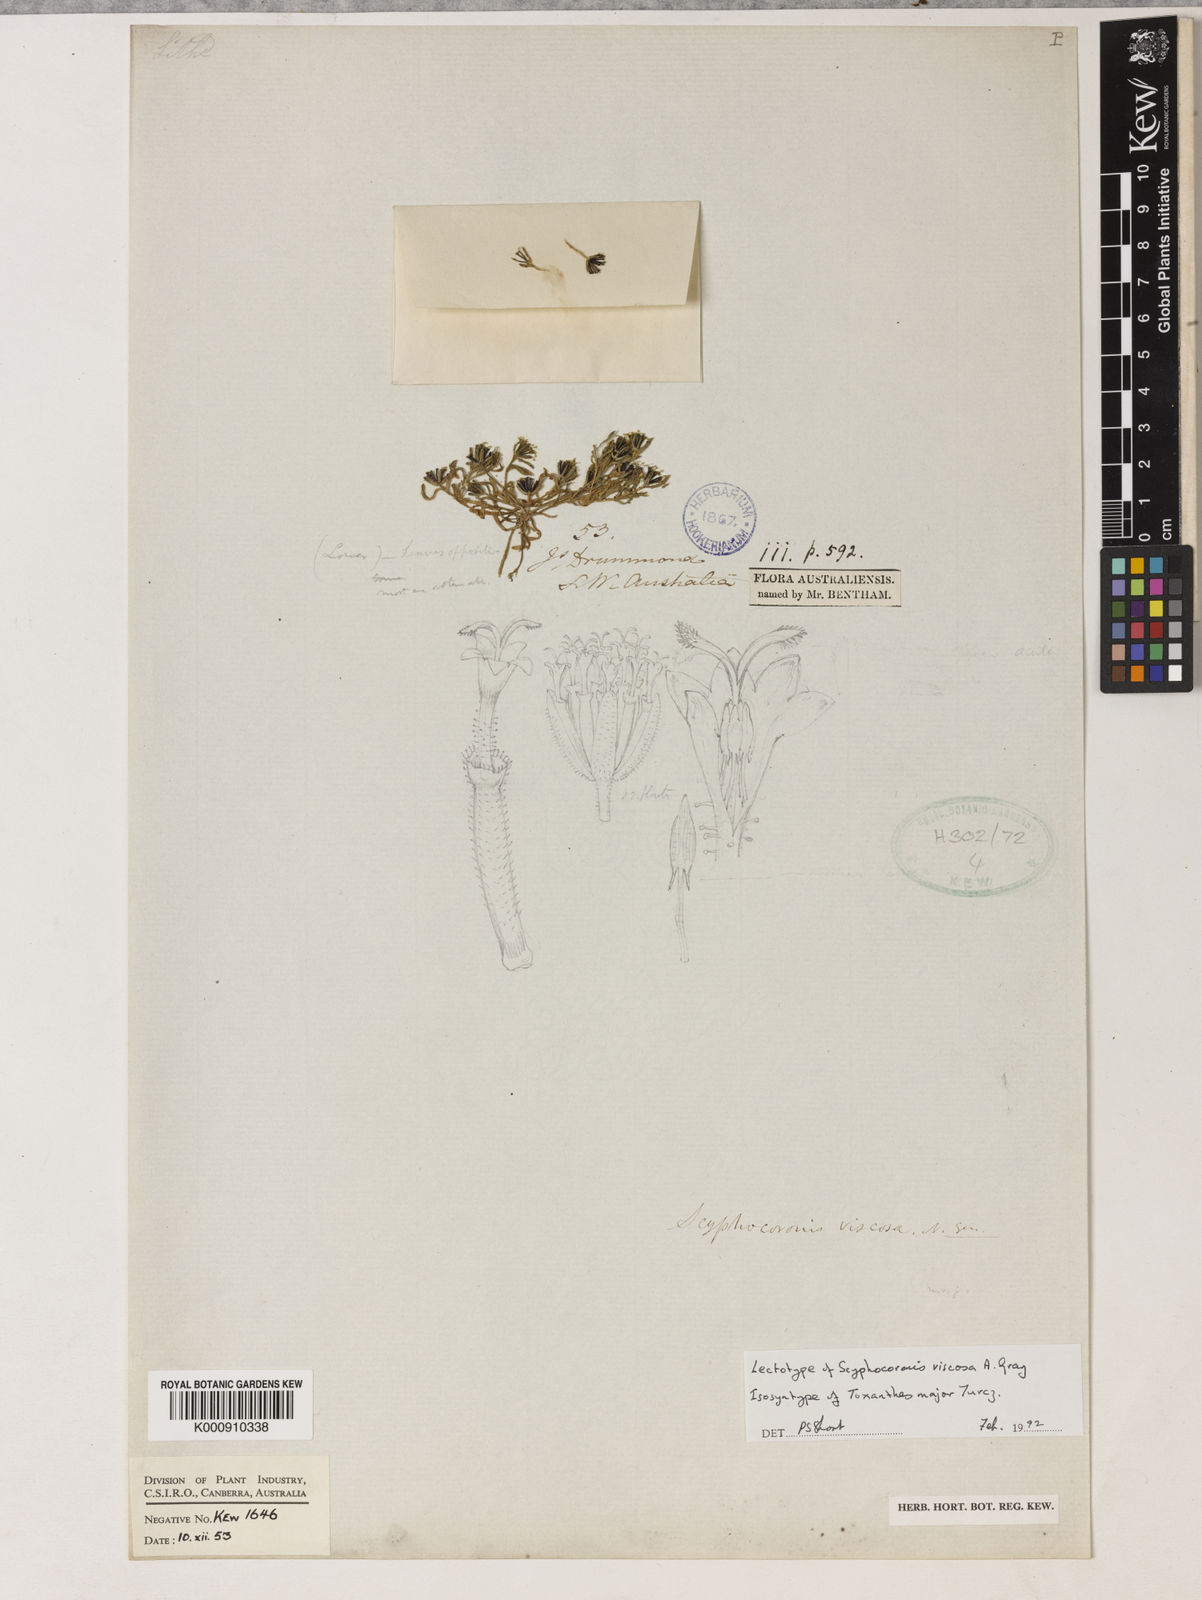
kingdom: Plantae
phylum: Tracheophyta
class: Magnoliopsida
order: Asterales
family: Asteraceae
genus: Millotia
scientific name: Millotia major
